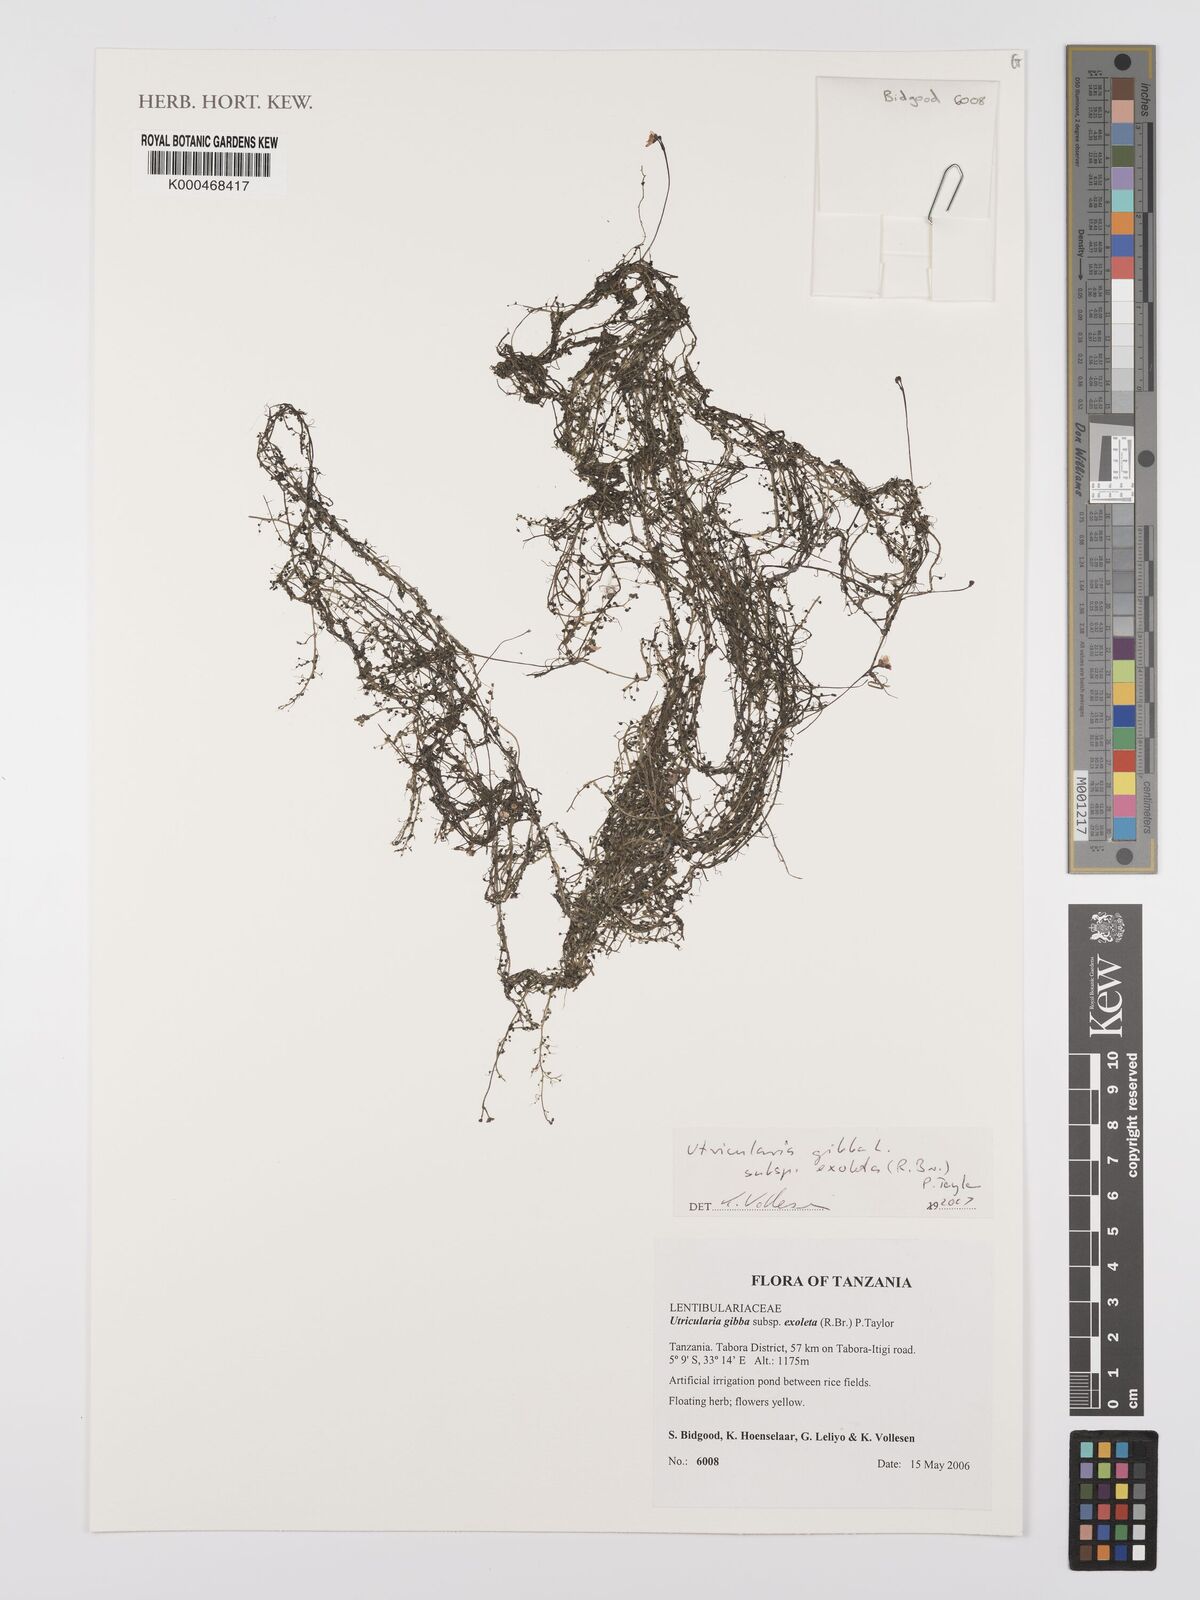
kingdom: Plantae
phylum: Tracheophyta
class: Magnoliopsida
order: Lamiales
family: Lentibulariaceae
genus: Utricularia
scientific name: Utricularia gibba
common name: Humped bladderwort
